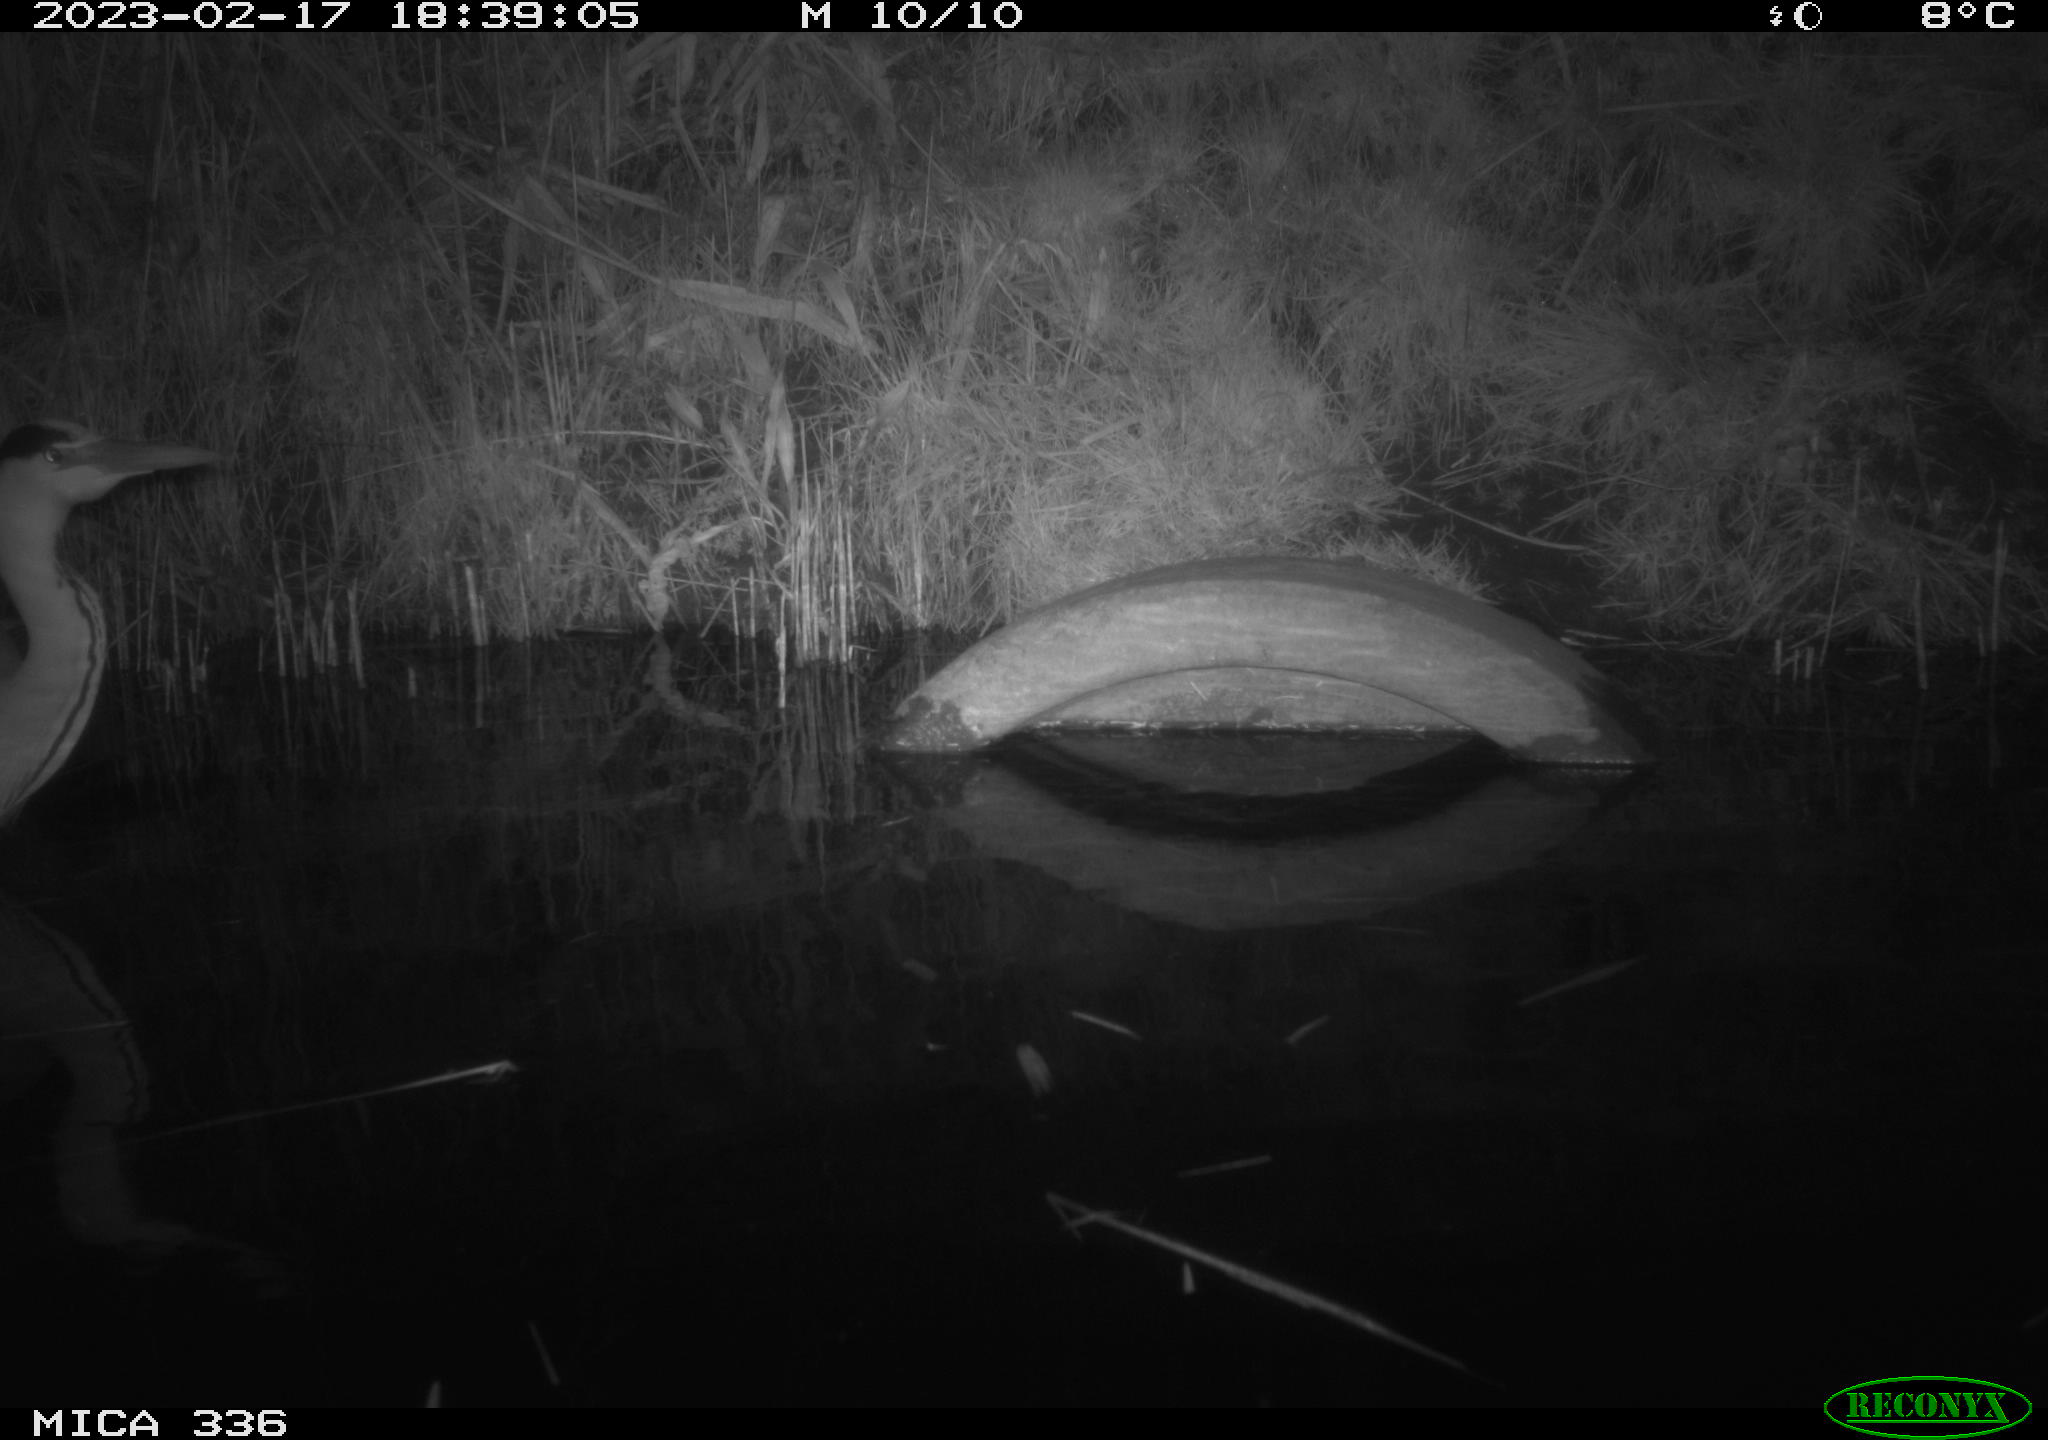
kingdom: Animalia
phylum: Chordata
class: Aves
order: Pelecaniformes
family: Ardeidae
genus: Ardea
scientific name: Ardea cinerea
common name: Grey heron
